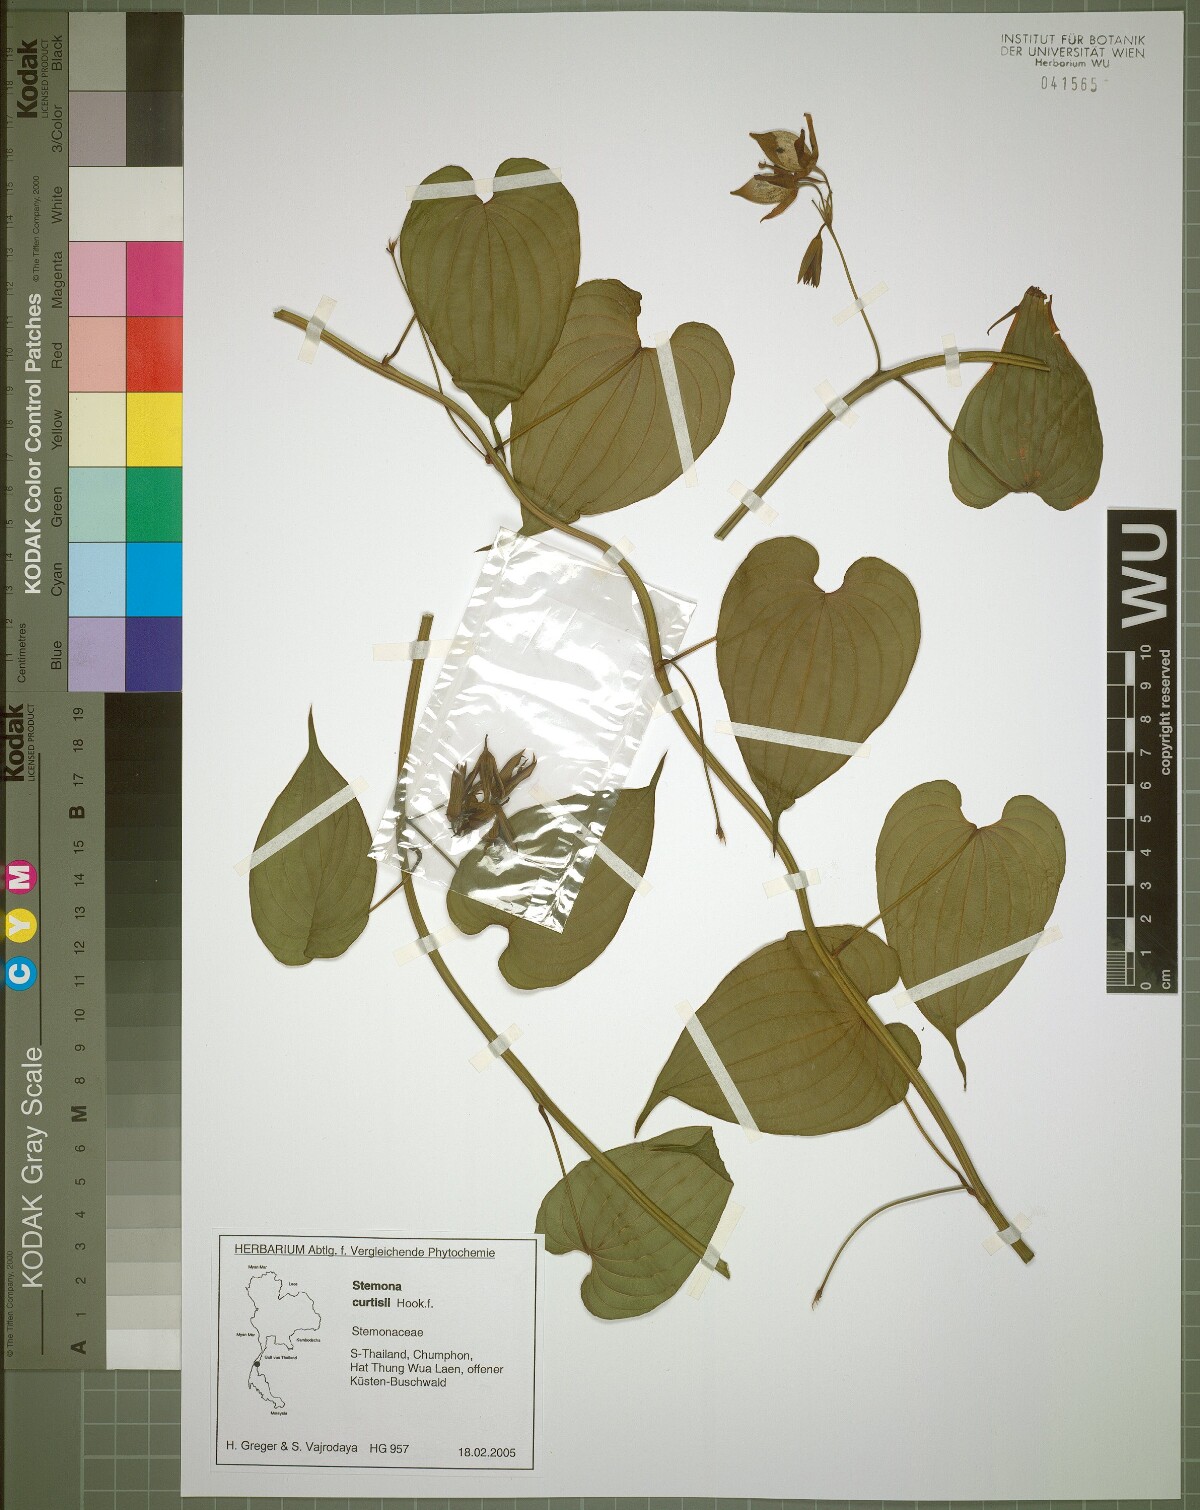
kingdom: Plantae
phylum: Tracheophyta
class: Liliopsida
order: Pandanales
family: Stemonaceae
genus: Stemona
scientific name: Stemona curtisii
